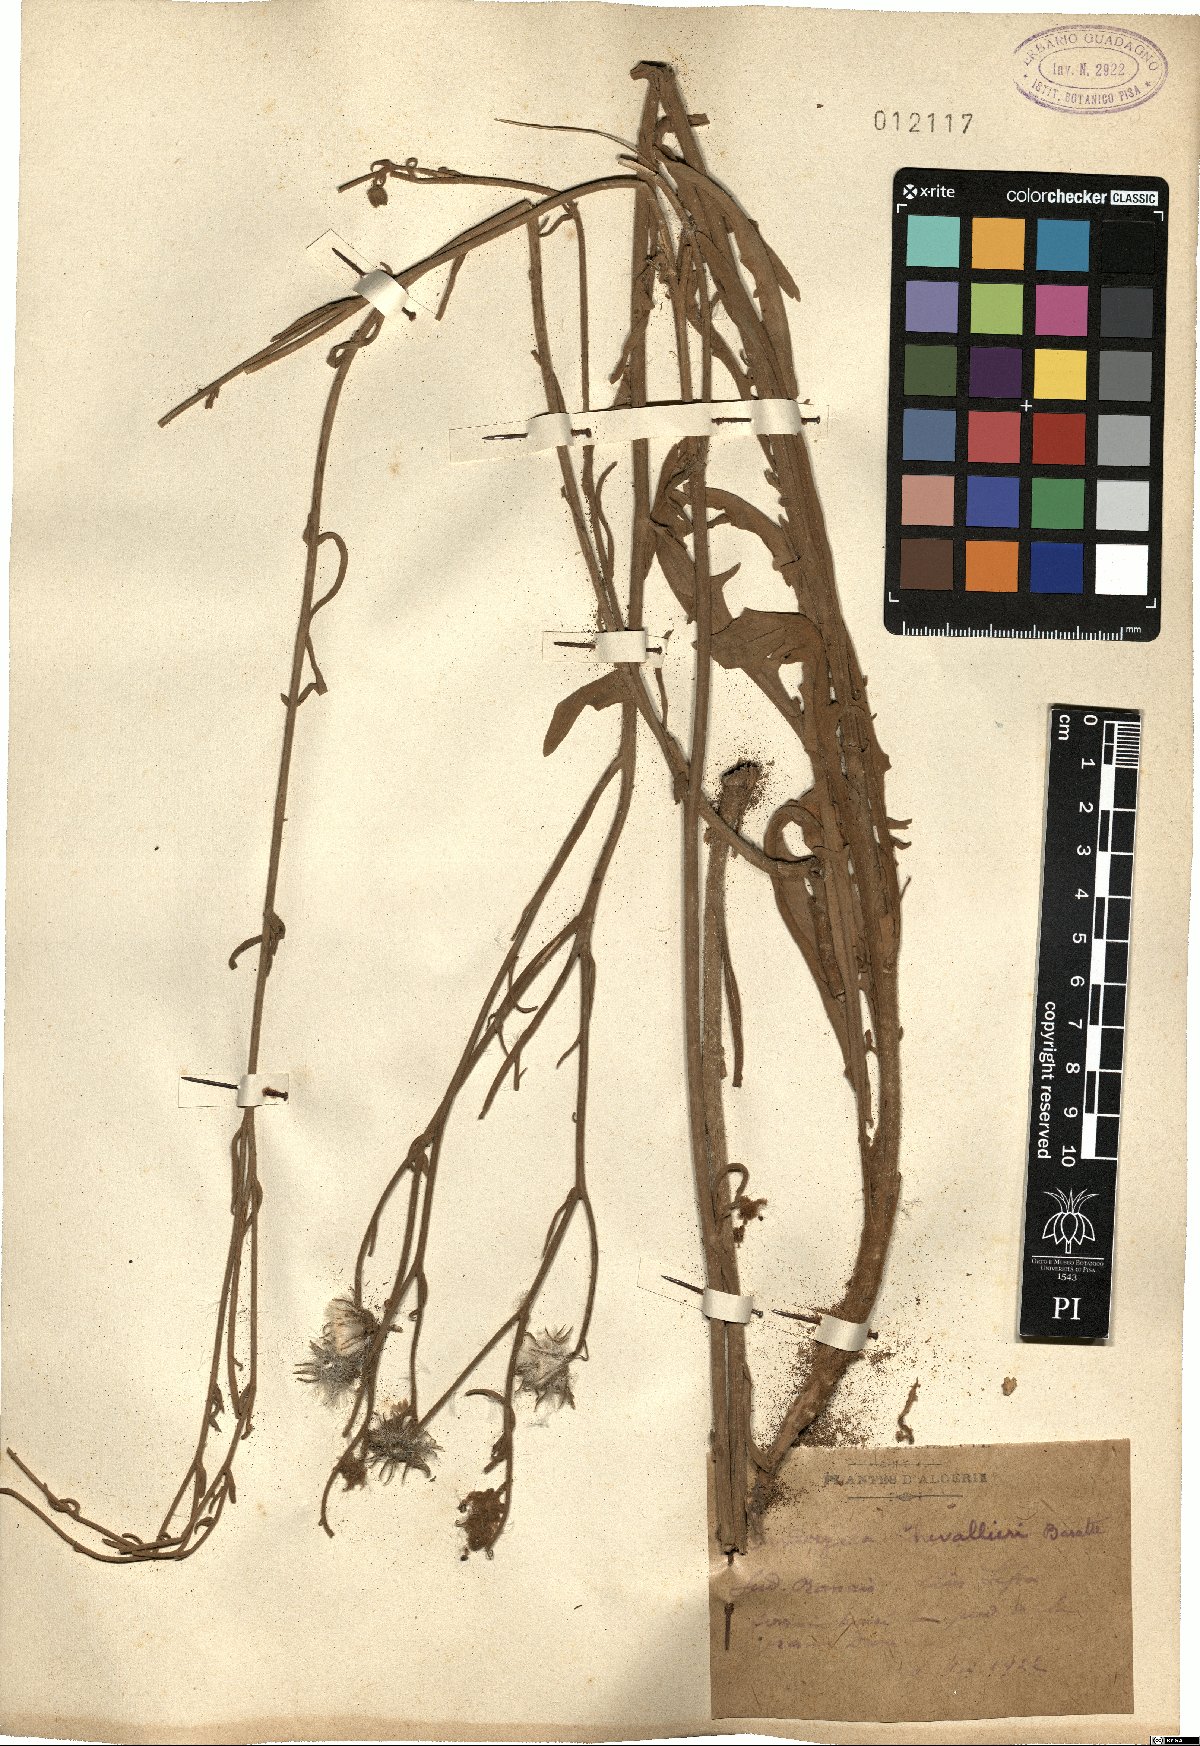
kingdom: Plantae
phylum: Tracheophyta
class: Magnoliopsida
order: Asterales
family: Asteraceae
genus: Andryala
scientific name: Andryala chevallieri
